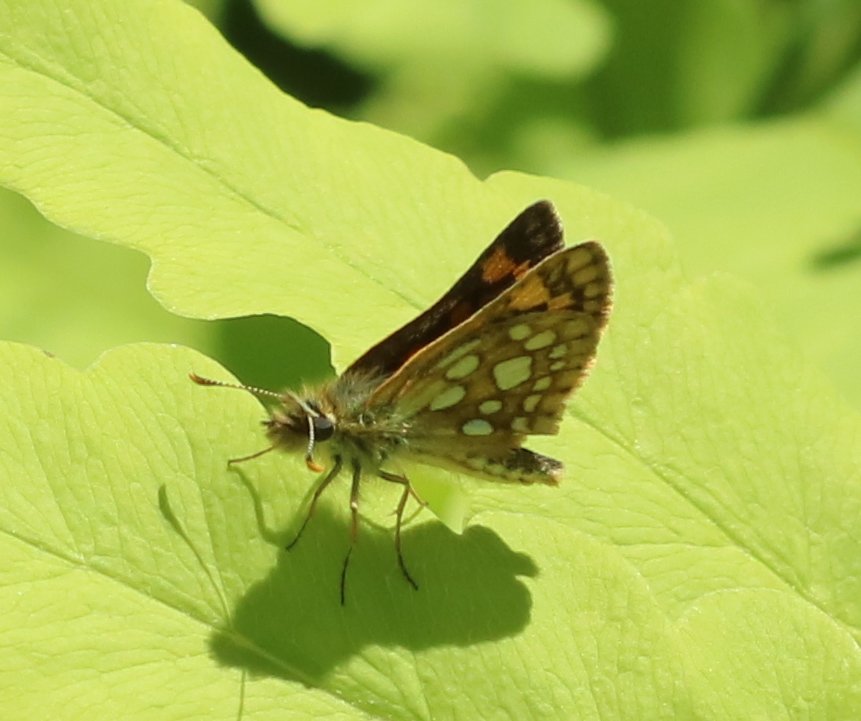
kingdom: Animalia
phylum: Arthropoda
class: Insecta
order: Lepidoptera
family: Hesperiidae
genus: Carterocephalus
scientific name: Carterocephalus palaemon
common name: Chequered Skipper
